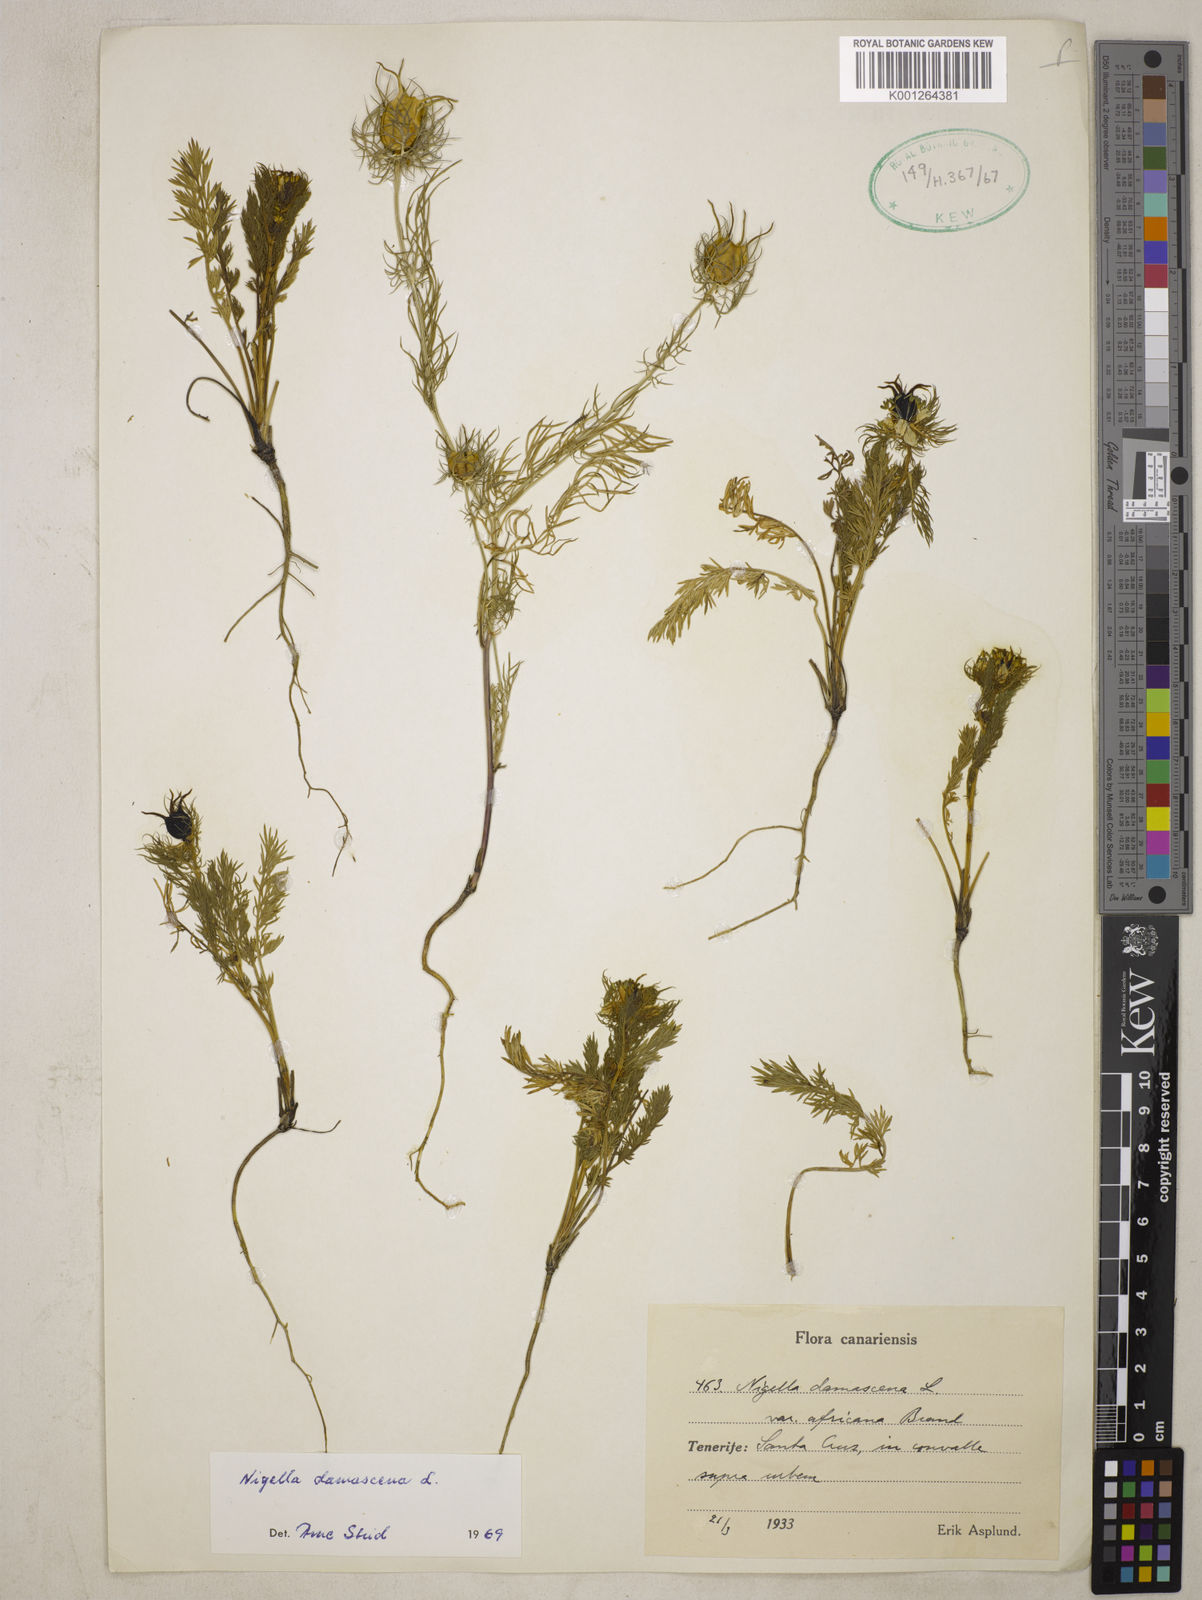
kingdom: Plantae
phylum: Tracheophyta
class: Magnoliopsida
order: Ranunculales
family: Ranunculaceae
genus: Nigella
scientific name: Nigella damascena
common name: Love-in-a-mist
